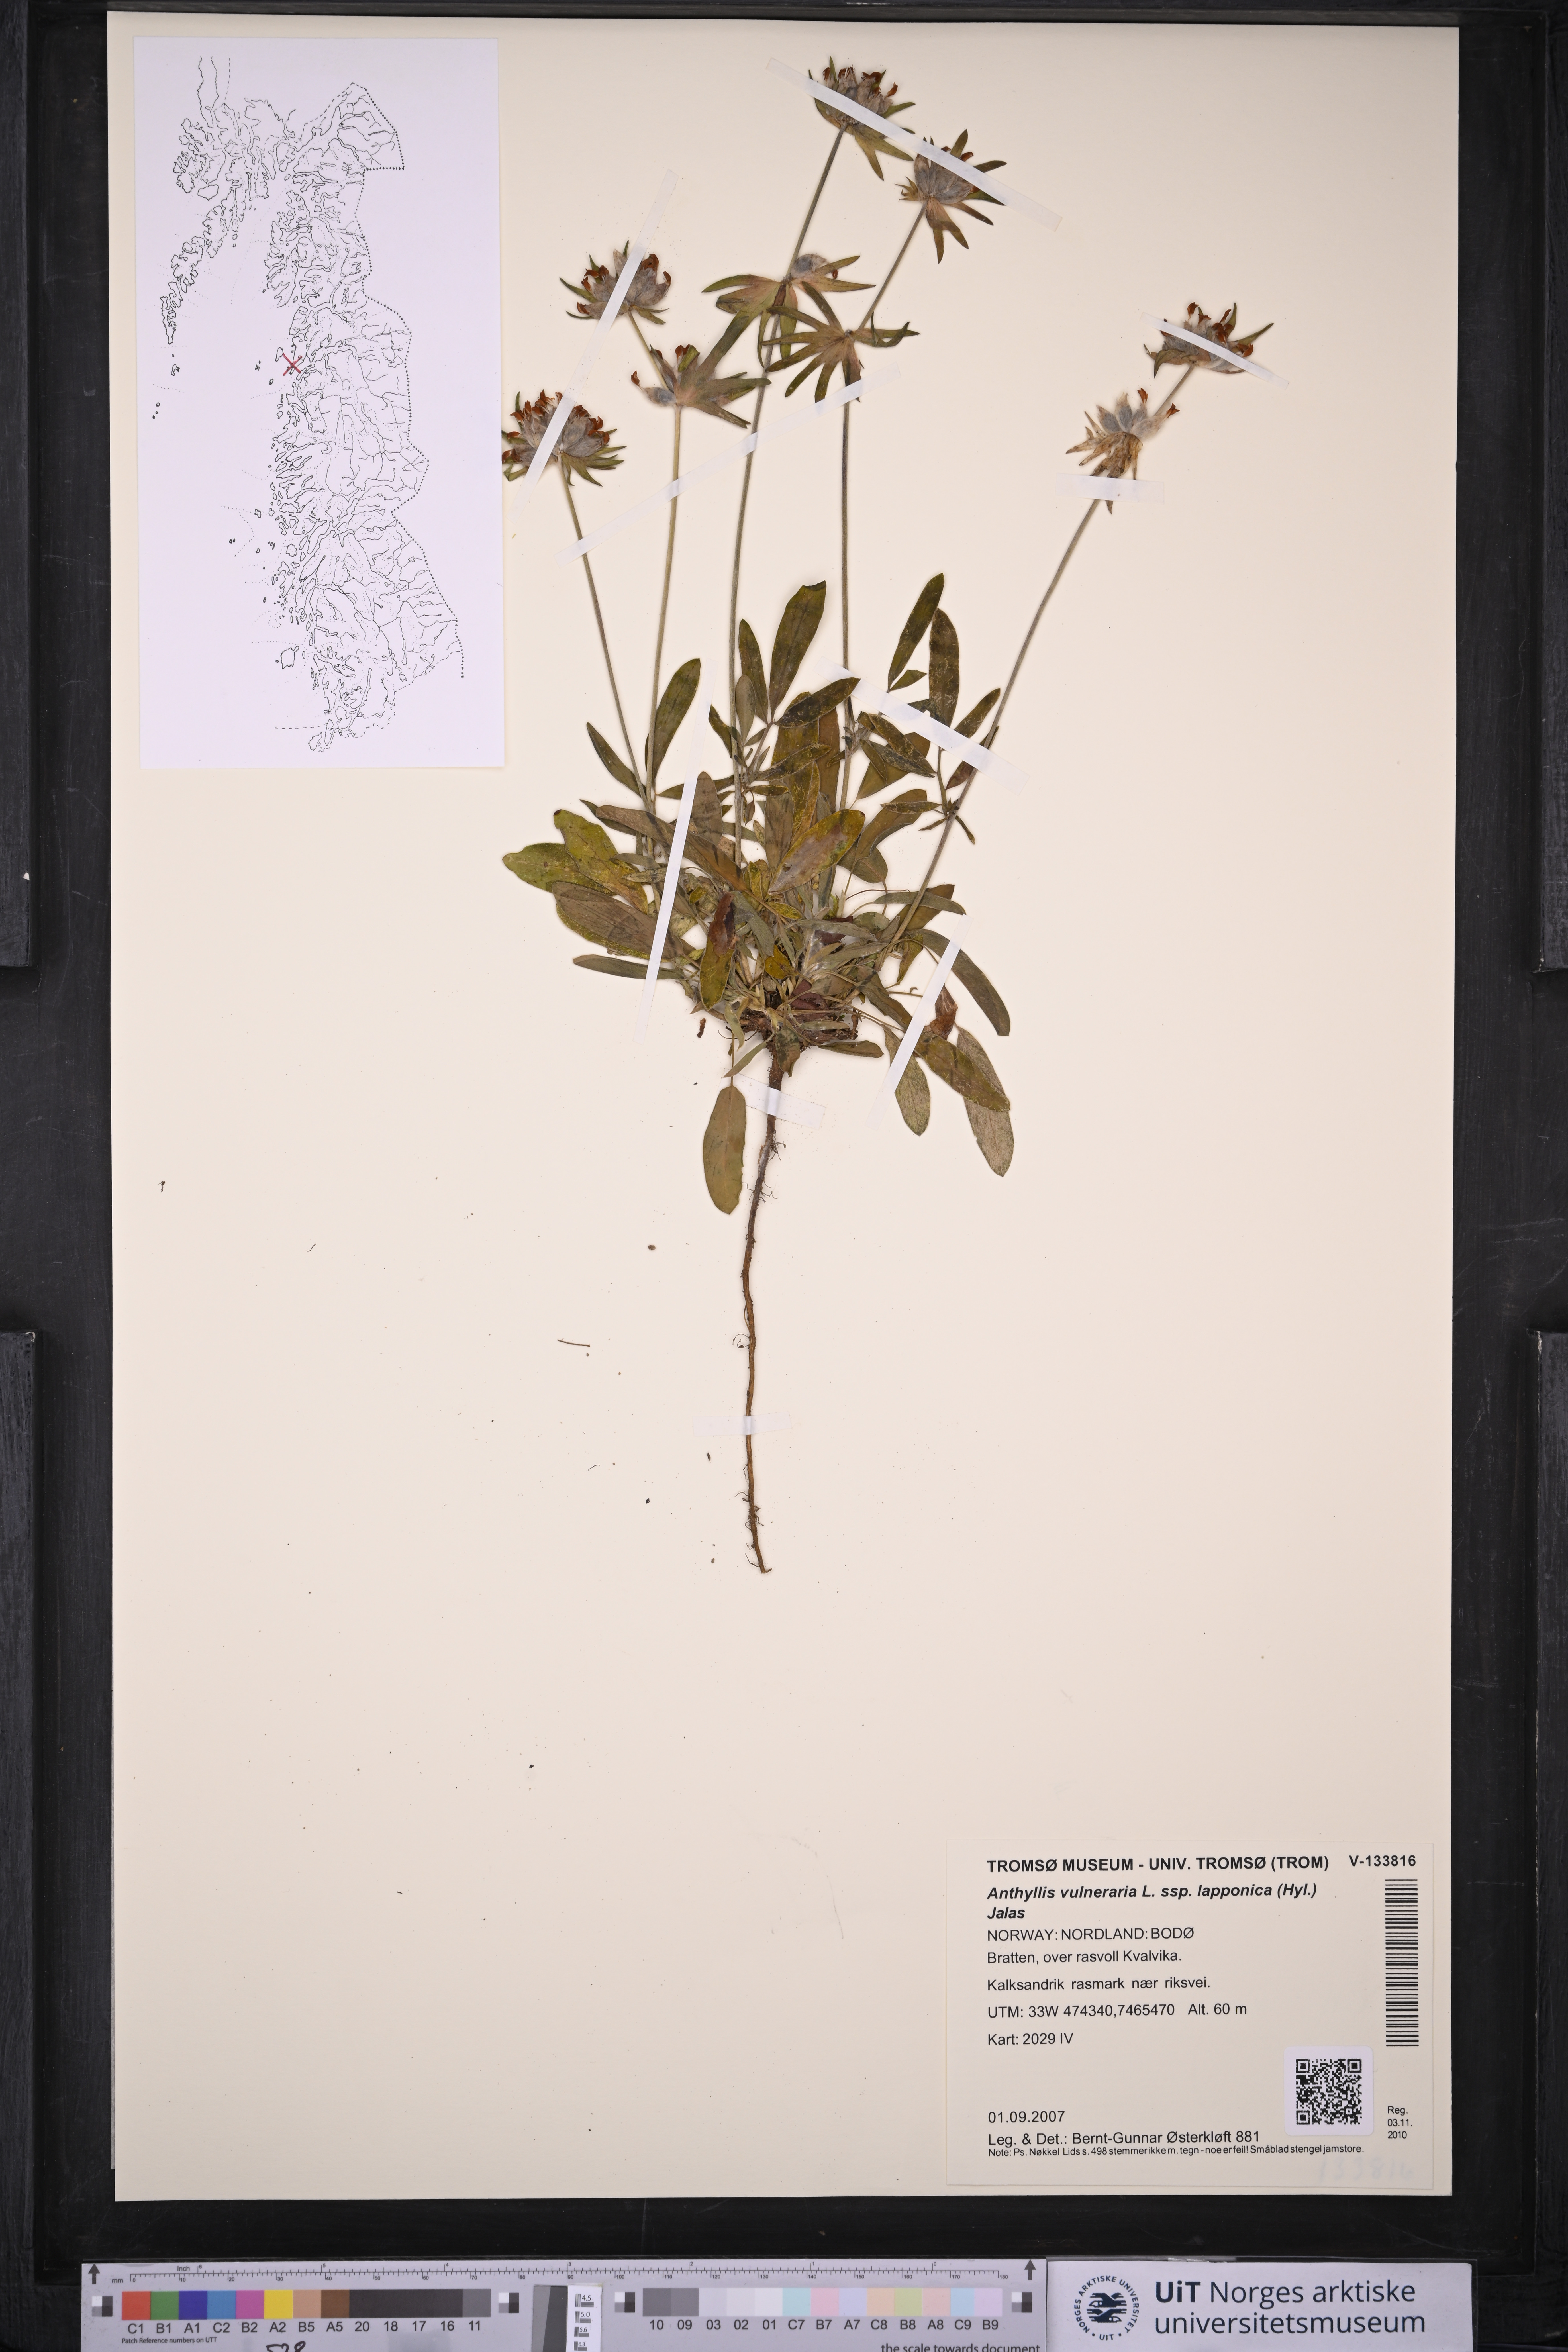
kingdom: Plantae
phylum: Tracheophyta
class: Magnoliopsida
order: Fabales
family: Fabaceae
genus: Anthyllis
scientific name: Anthyllis vulneraria
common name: Kidney vetch
